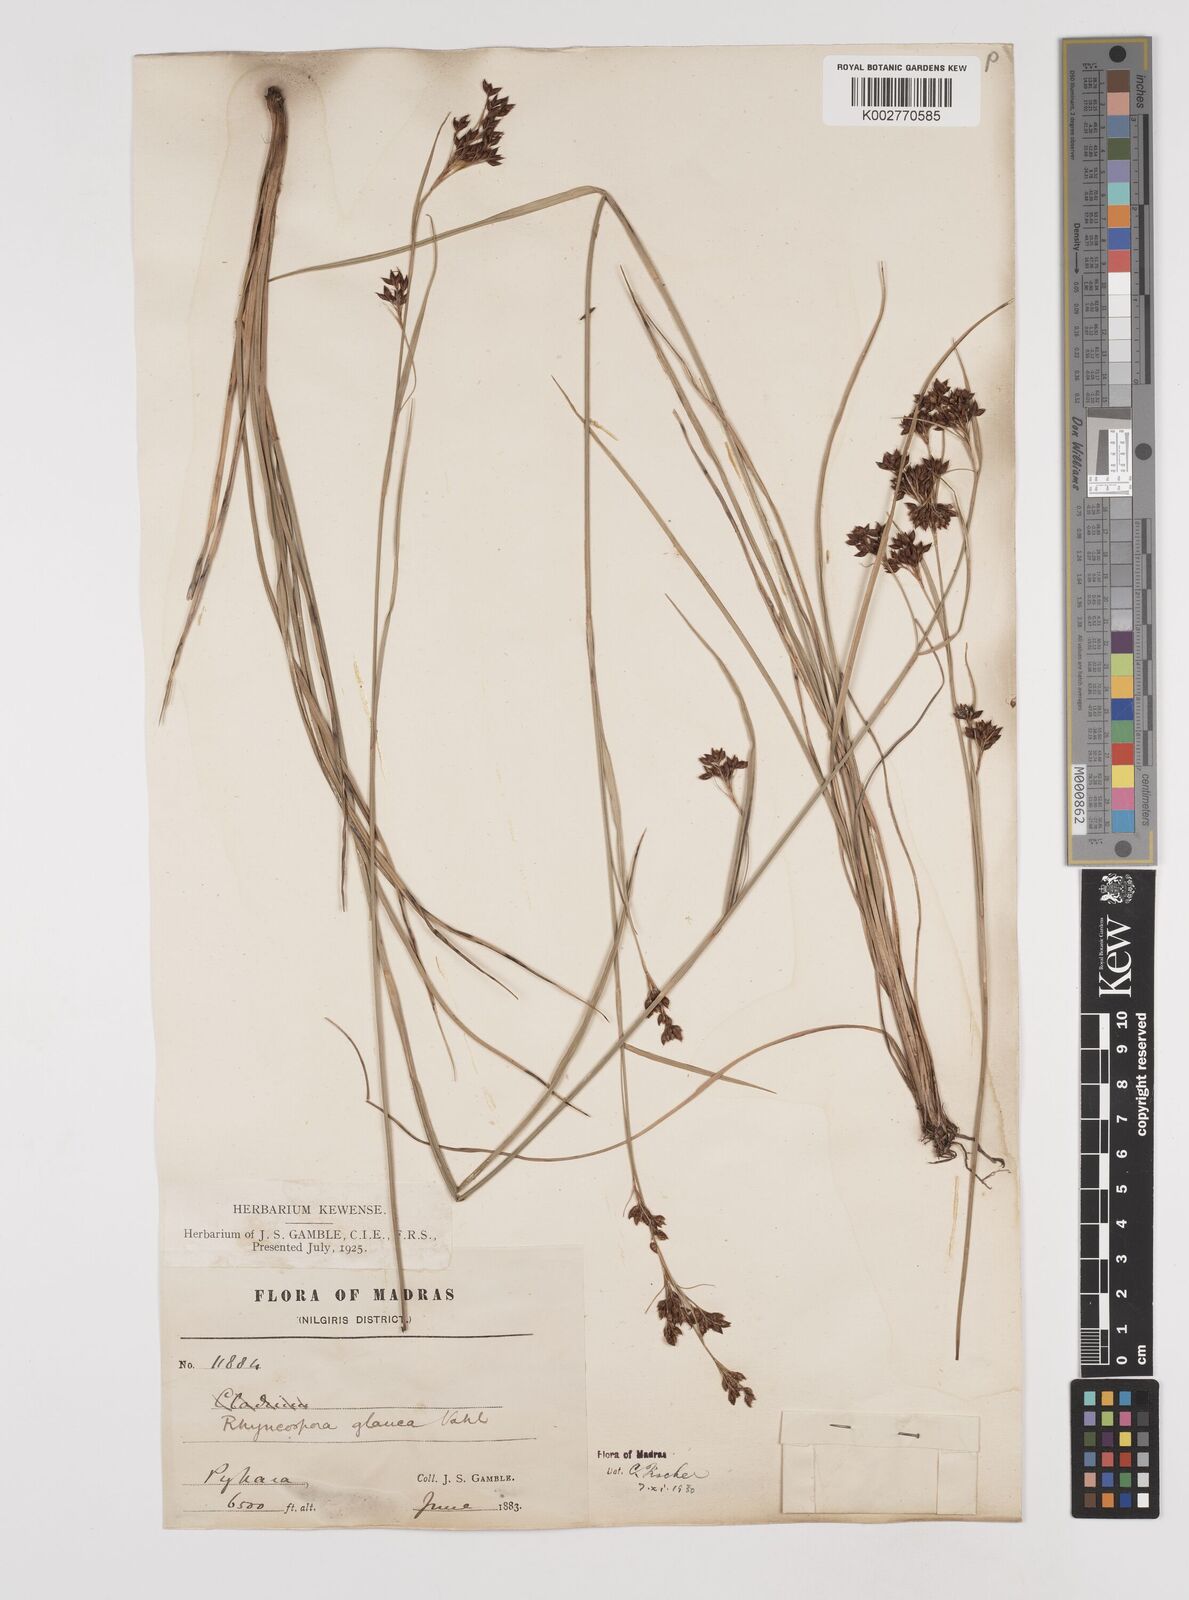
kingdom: Plantae
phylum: Tracheophyta
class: Liliopsida
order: Poales
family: Cyperaceae
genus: Rhynchospora
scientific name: Rhynchospora rugosa
